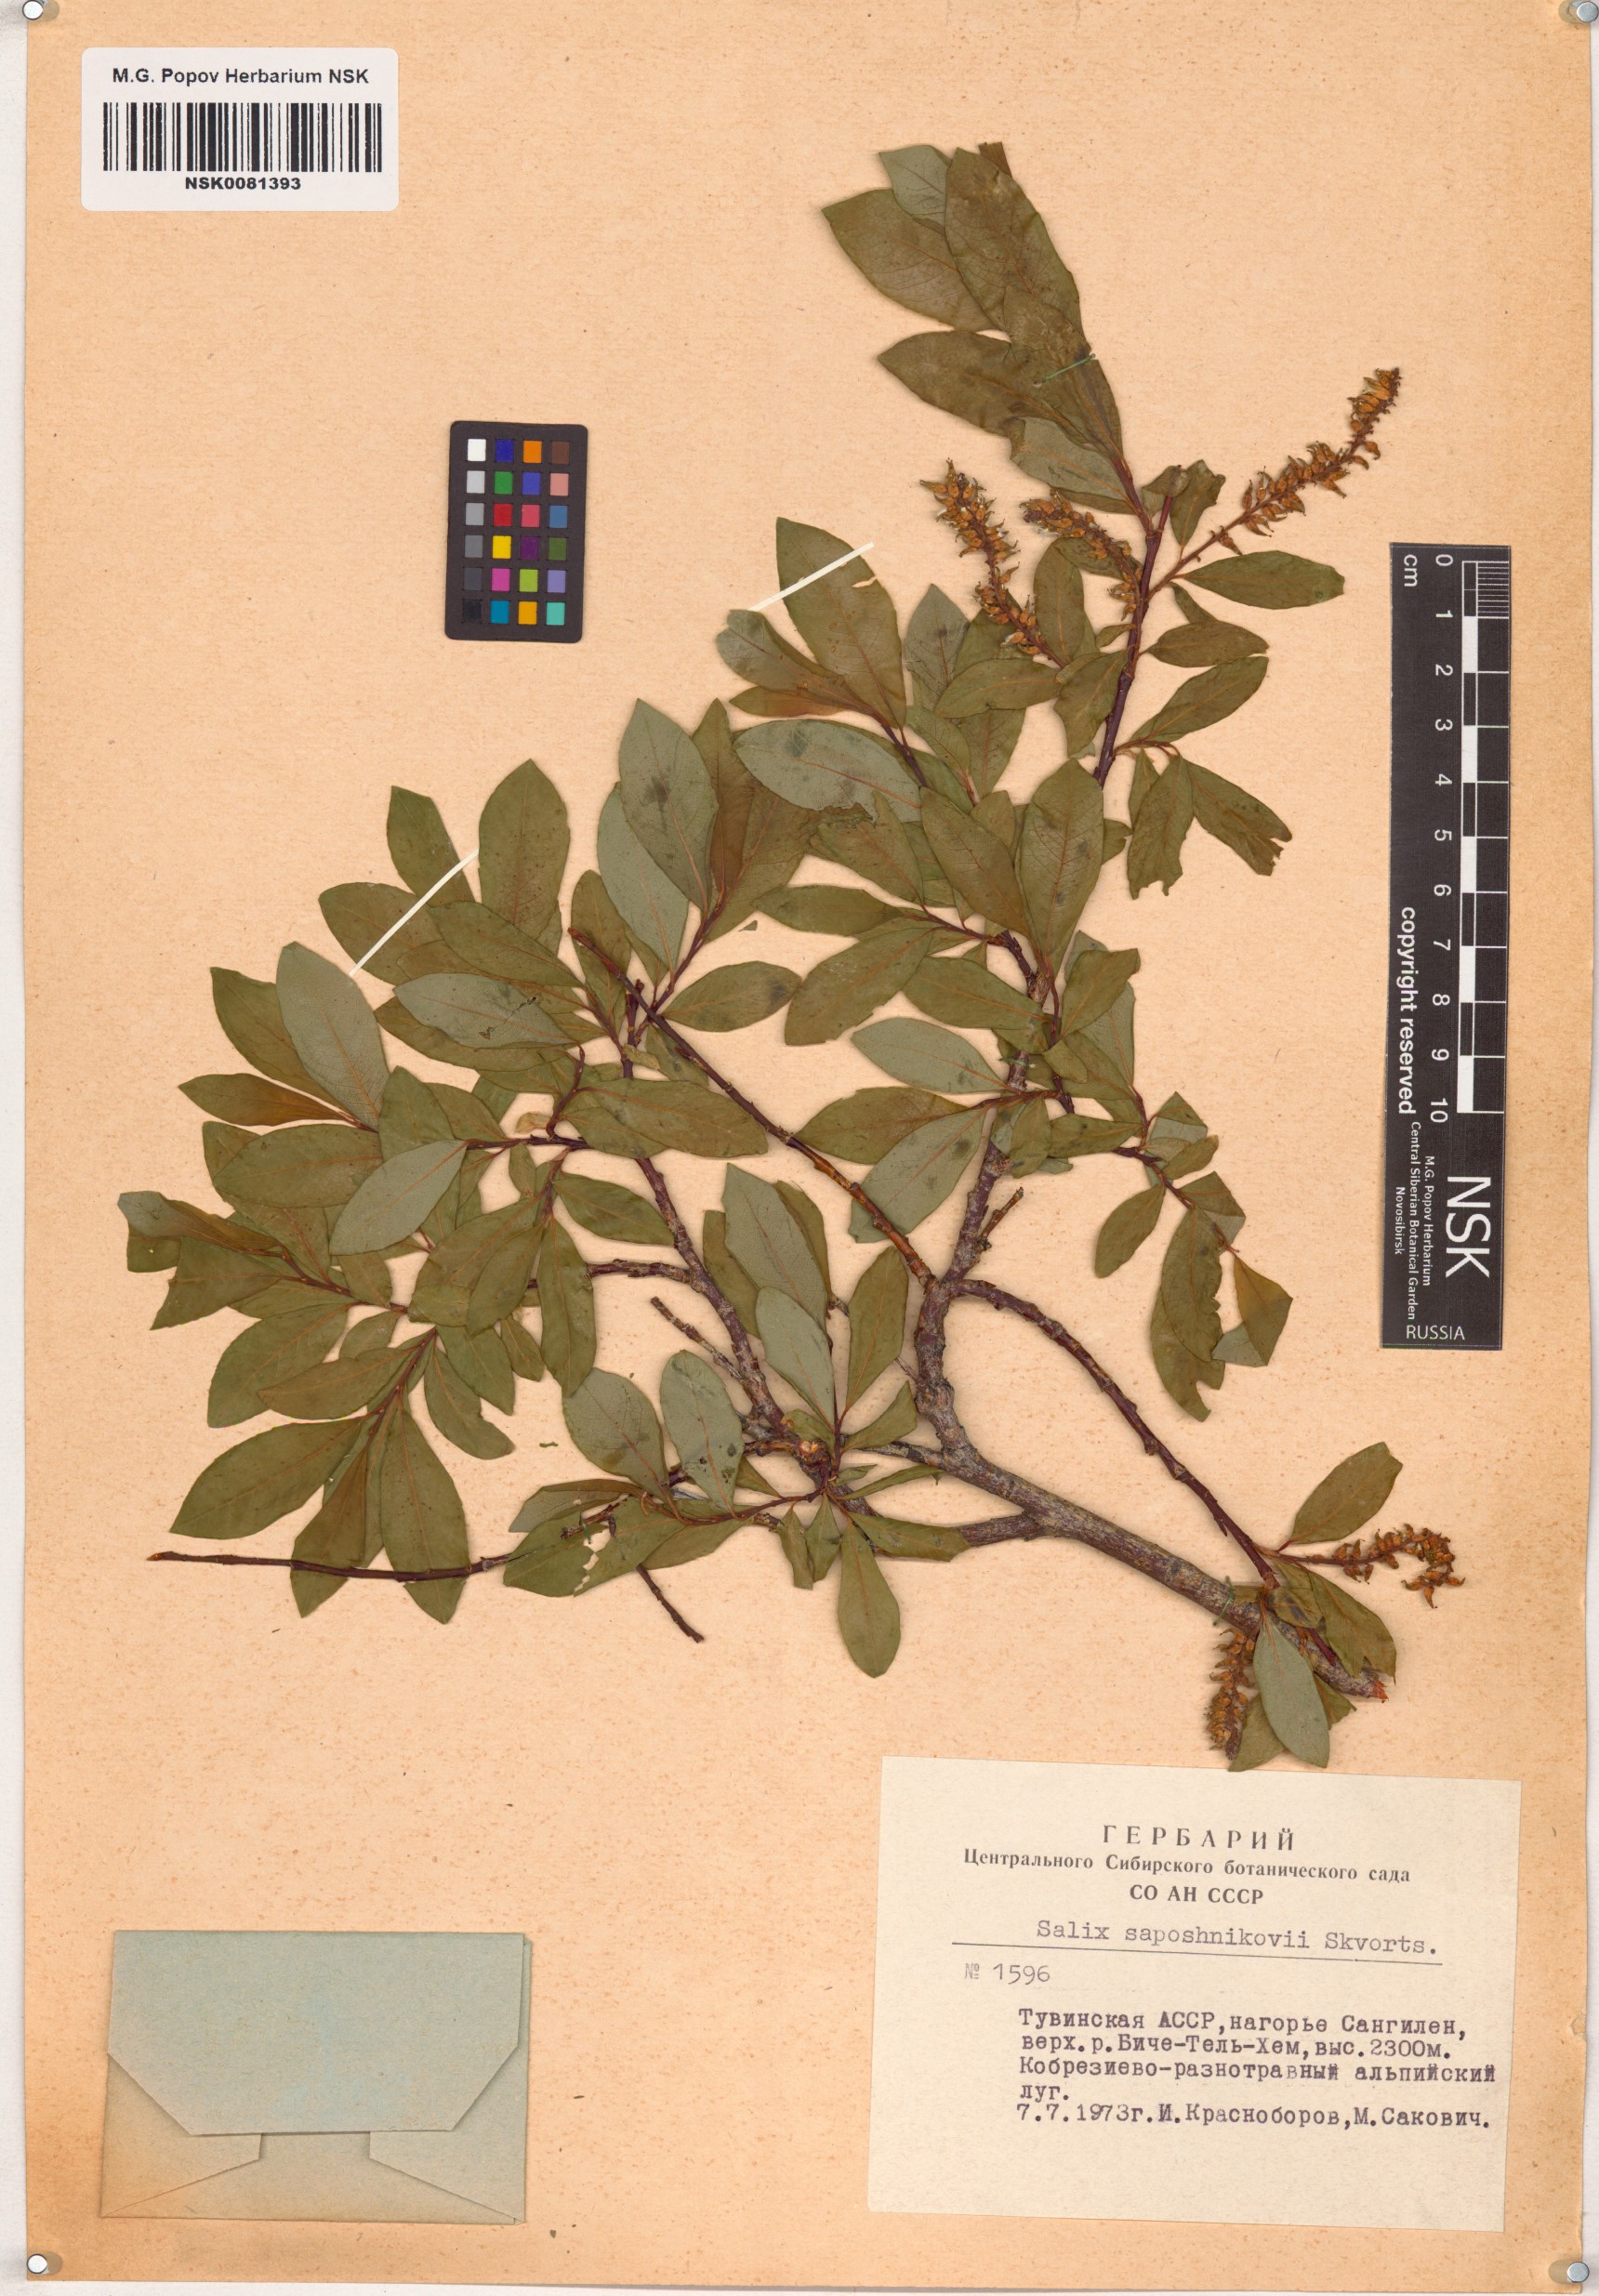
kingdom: Plantae
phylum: Tracheophyta
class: Magnoliopsida
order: Malpighiales
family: Salicaceae
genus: Salix
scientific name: Salix saposhnikovii
